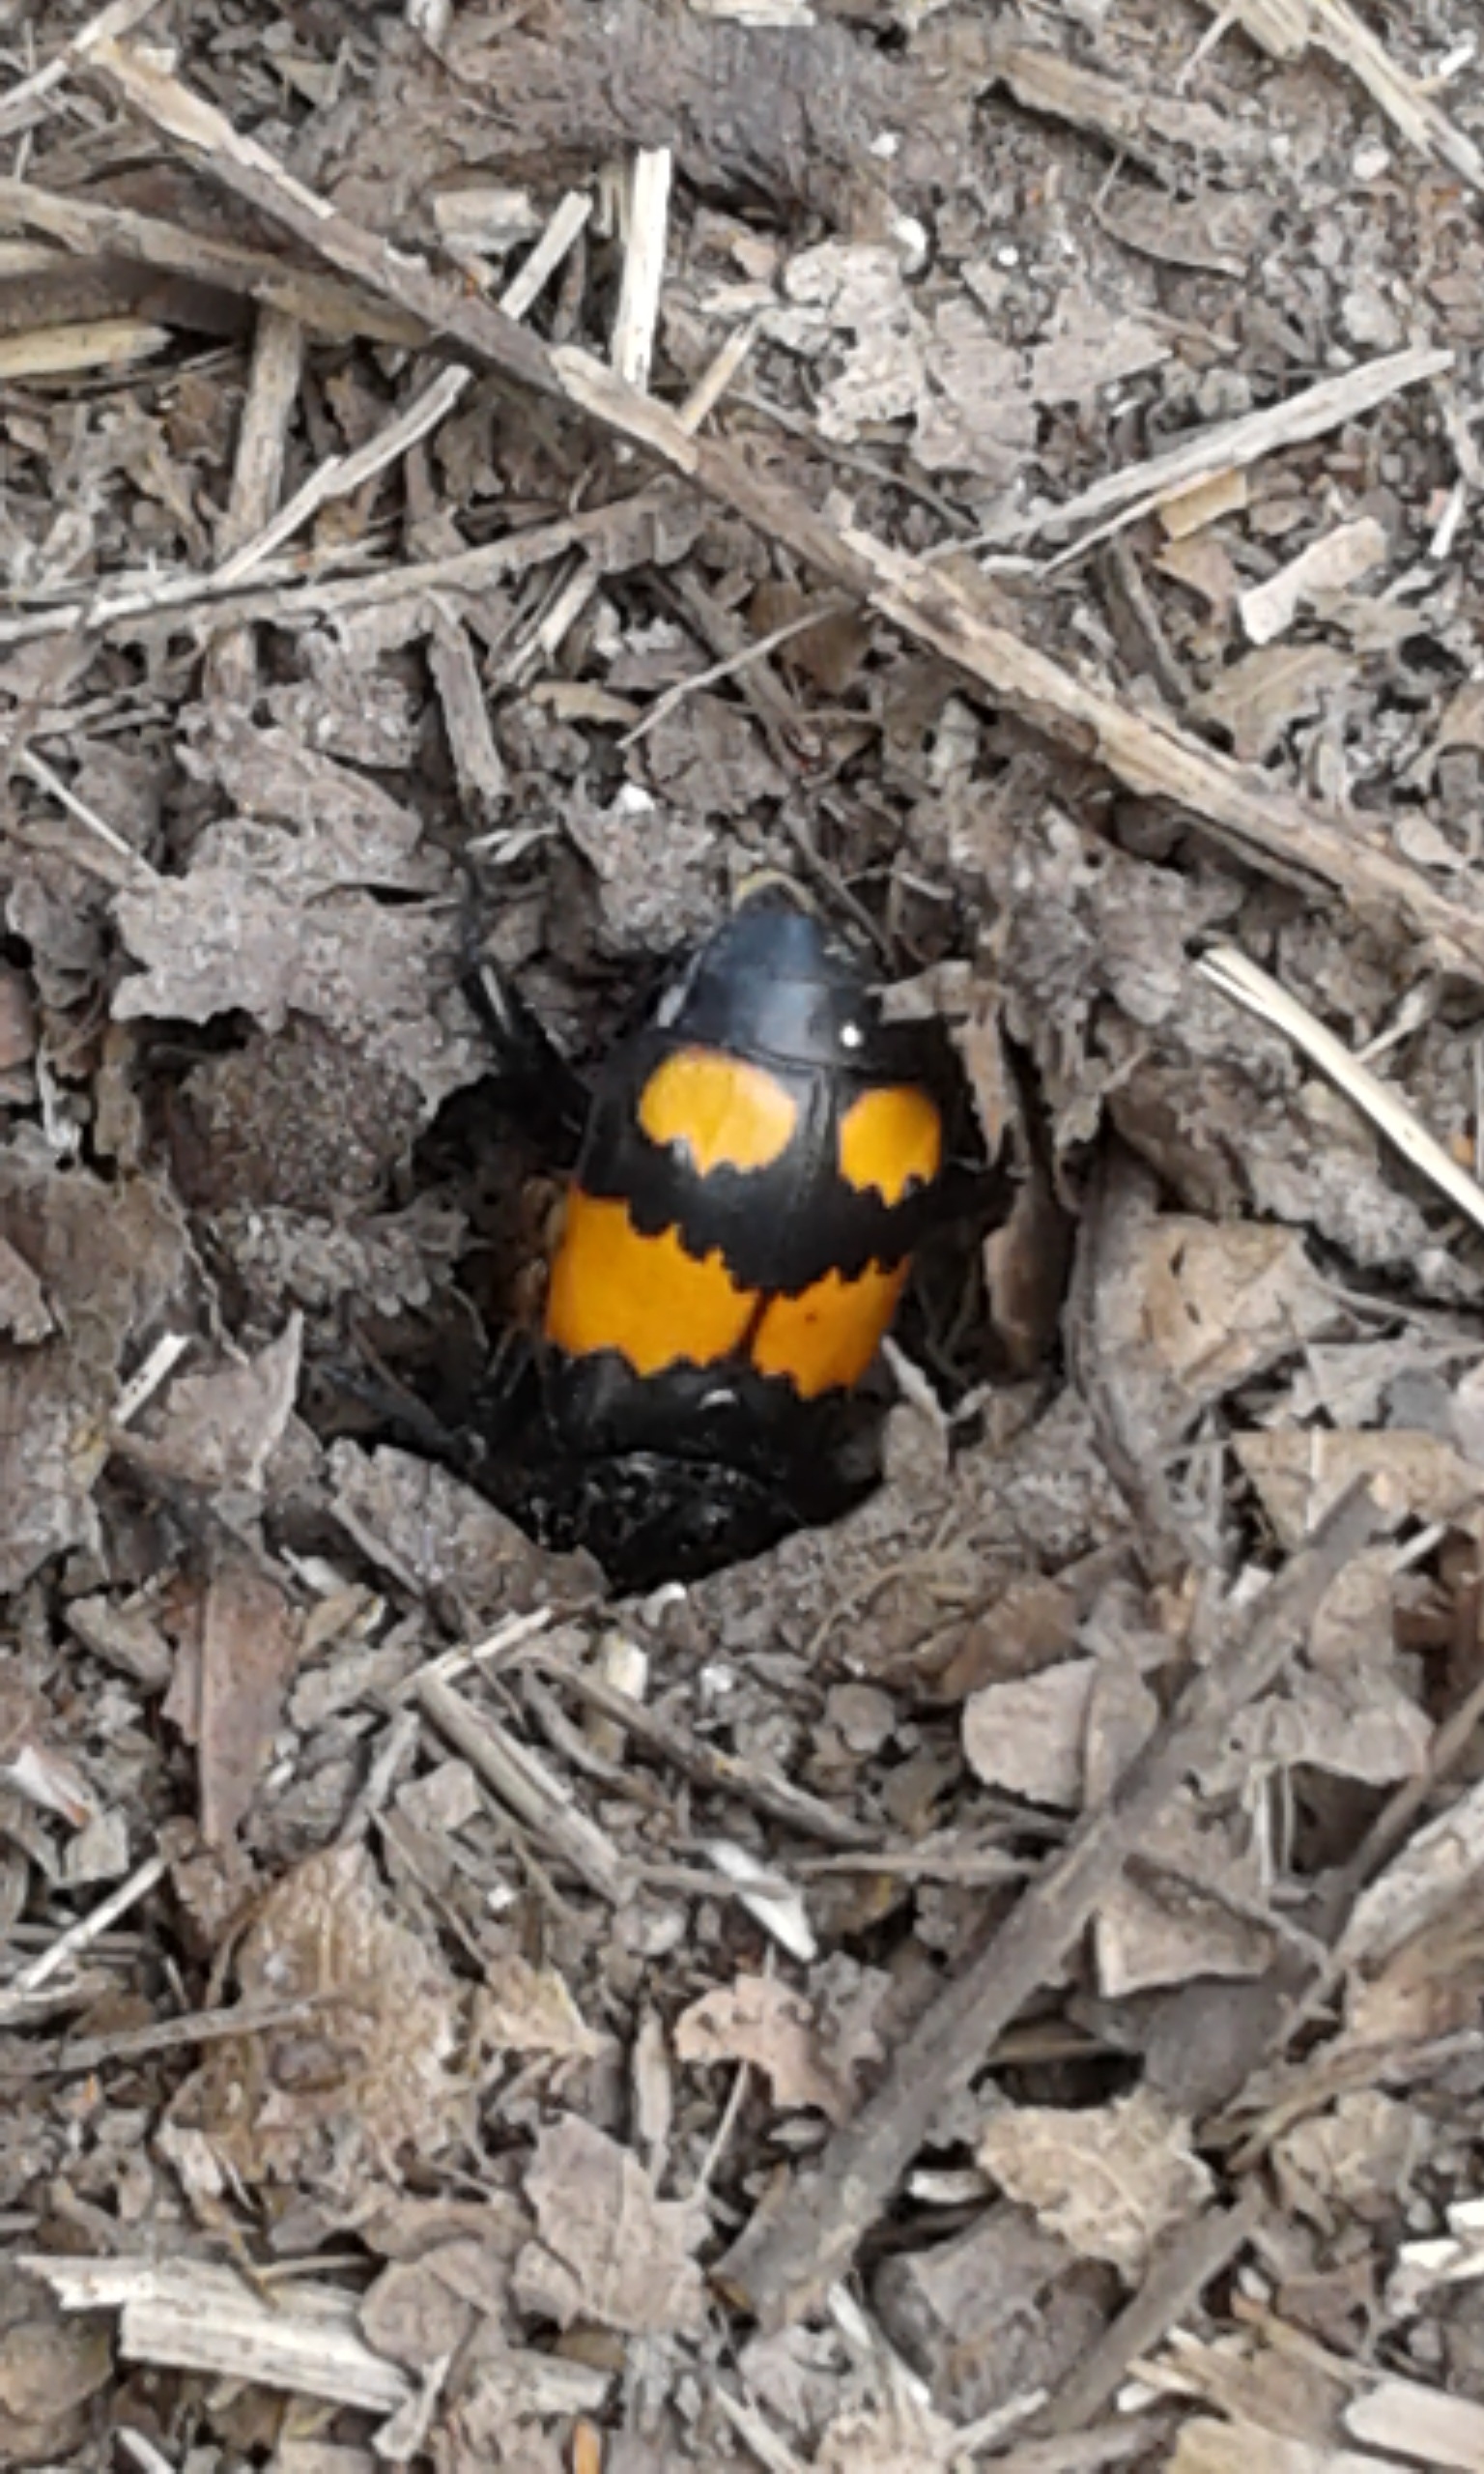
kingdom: Animalia
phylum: Arthropoda
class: Insecta
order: Coleoptera
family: Staphylinidae
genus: Nicrophorus
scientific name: Nicrophorus vespilloides
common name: Sortkøllet ådselgraver
